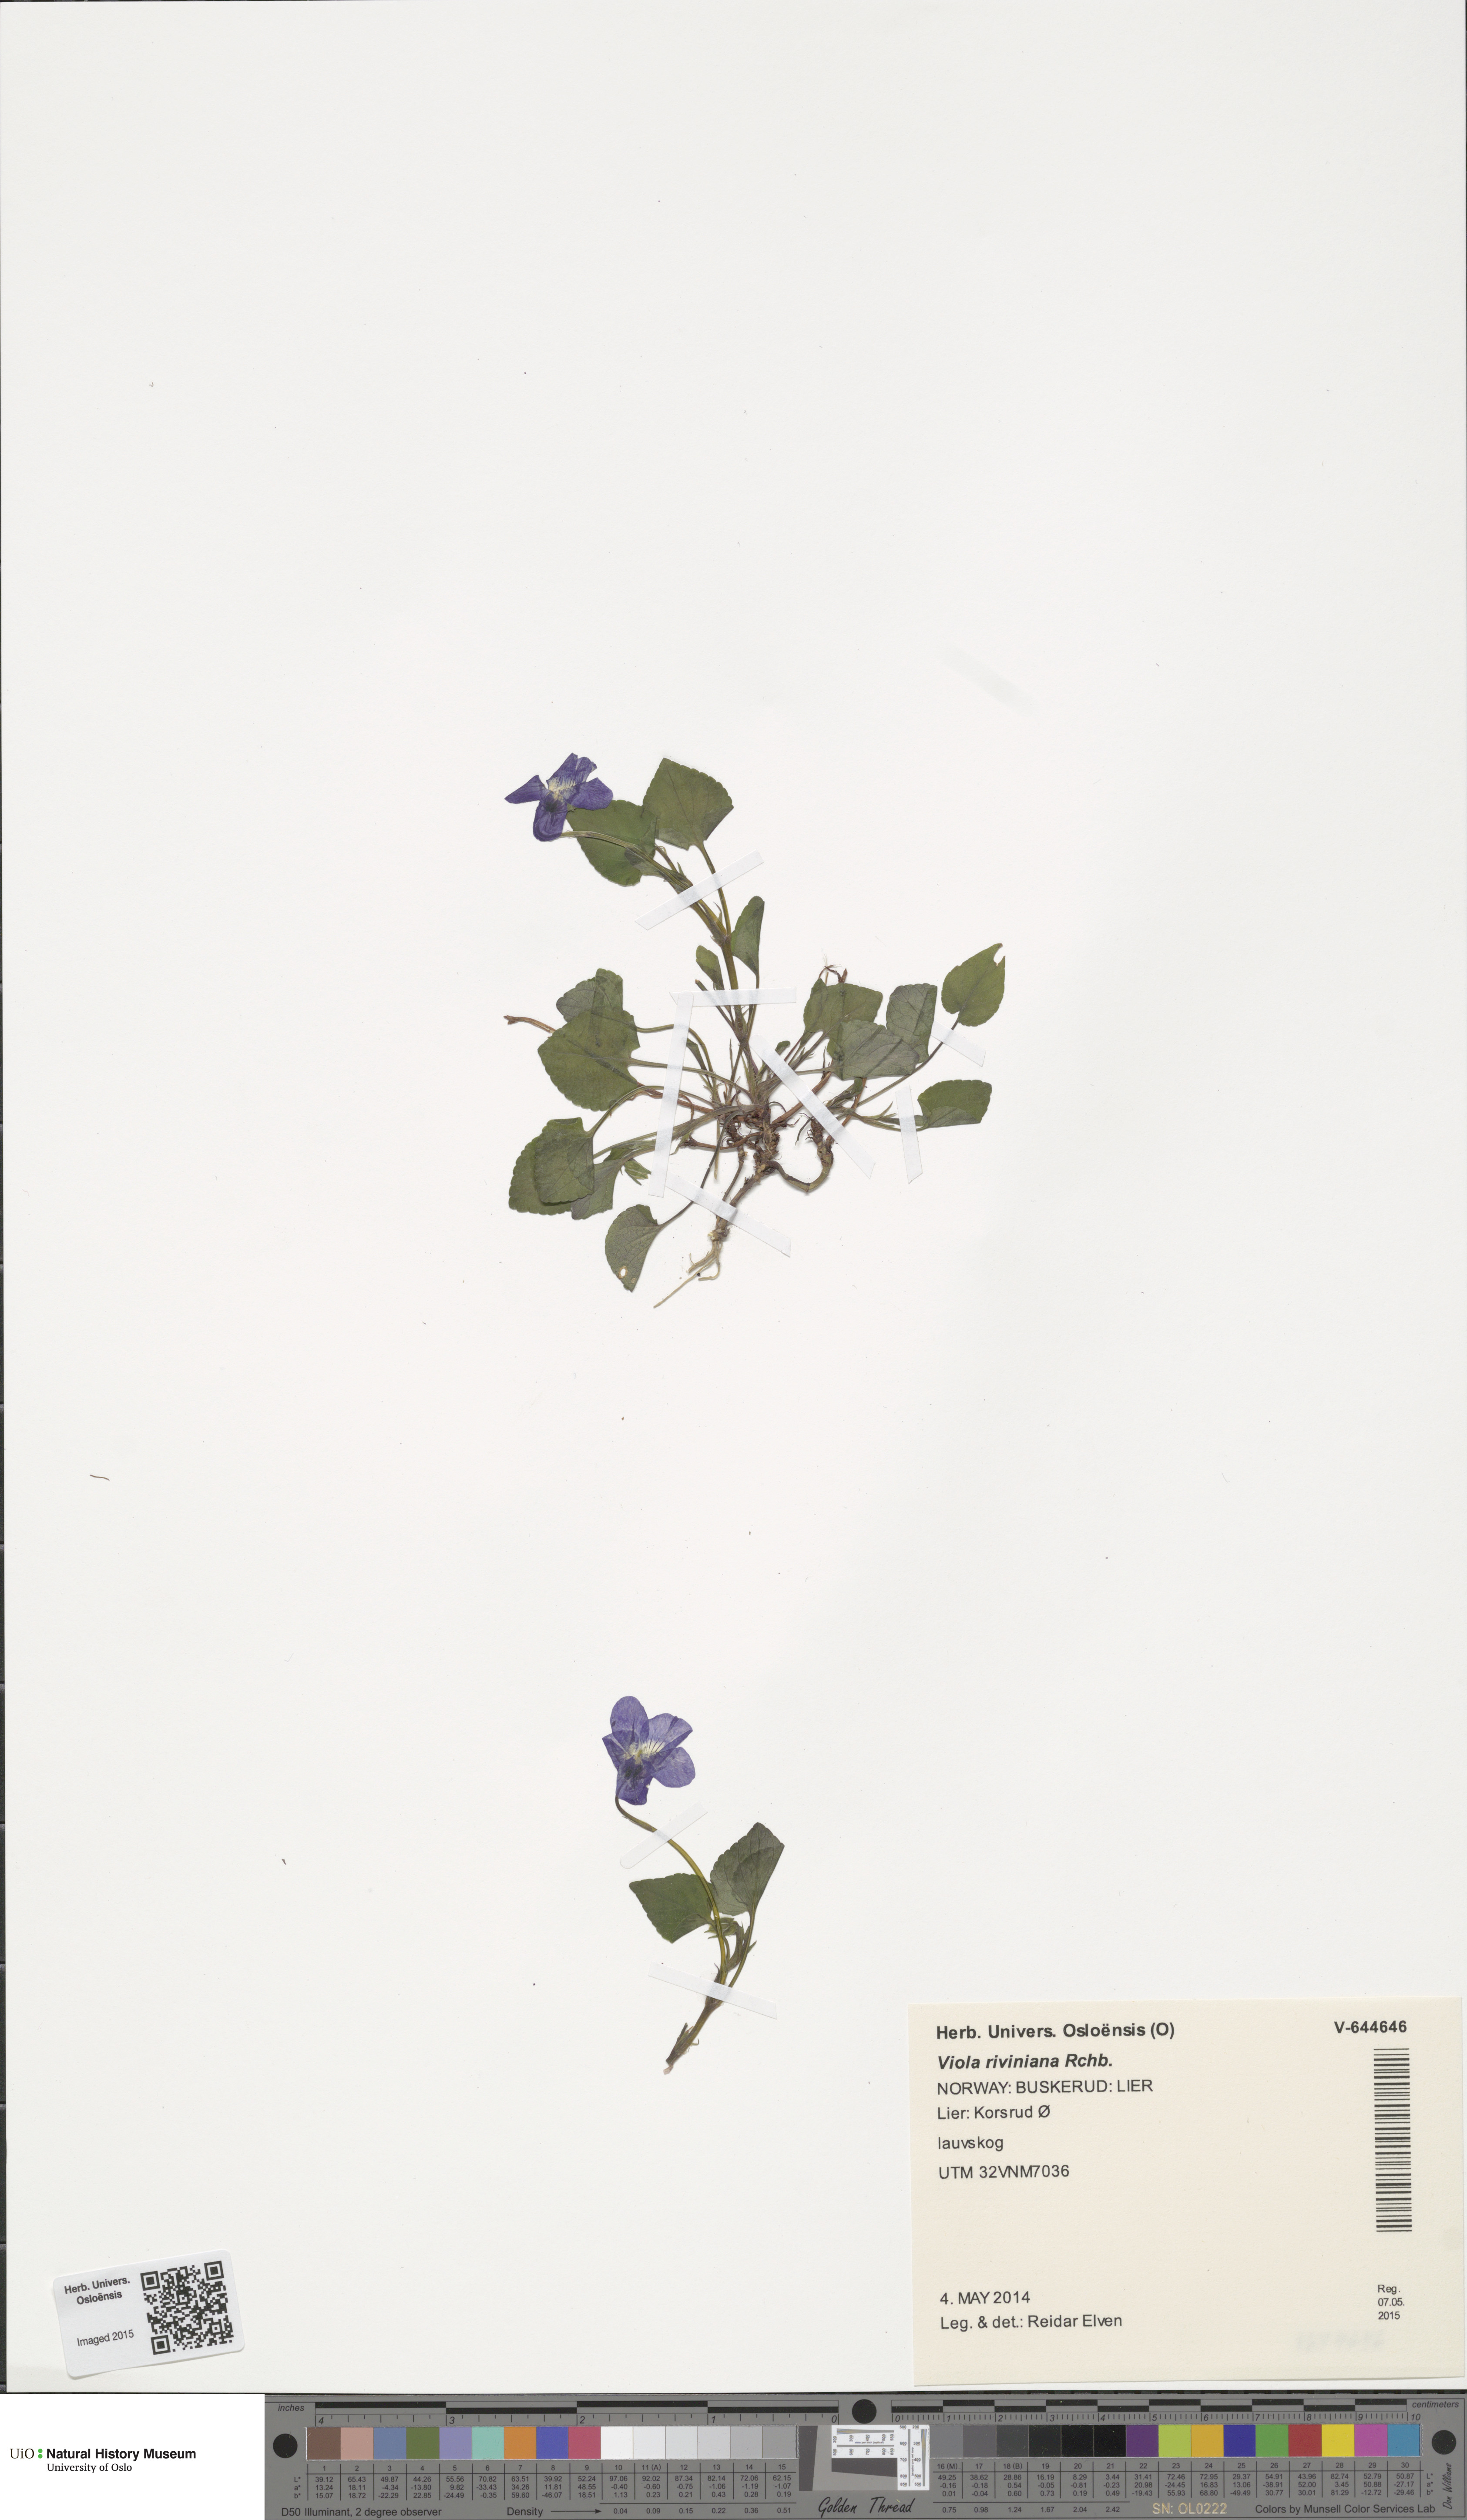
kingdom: Plantae
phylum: Tracheophyta
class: Magnoliopsida
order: Malpighiales
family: Violaceae
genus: Viola
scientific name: Viola riviniana
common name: Common dog-violet
